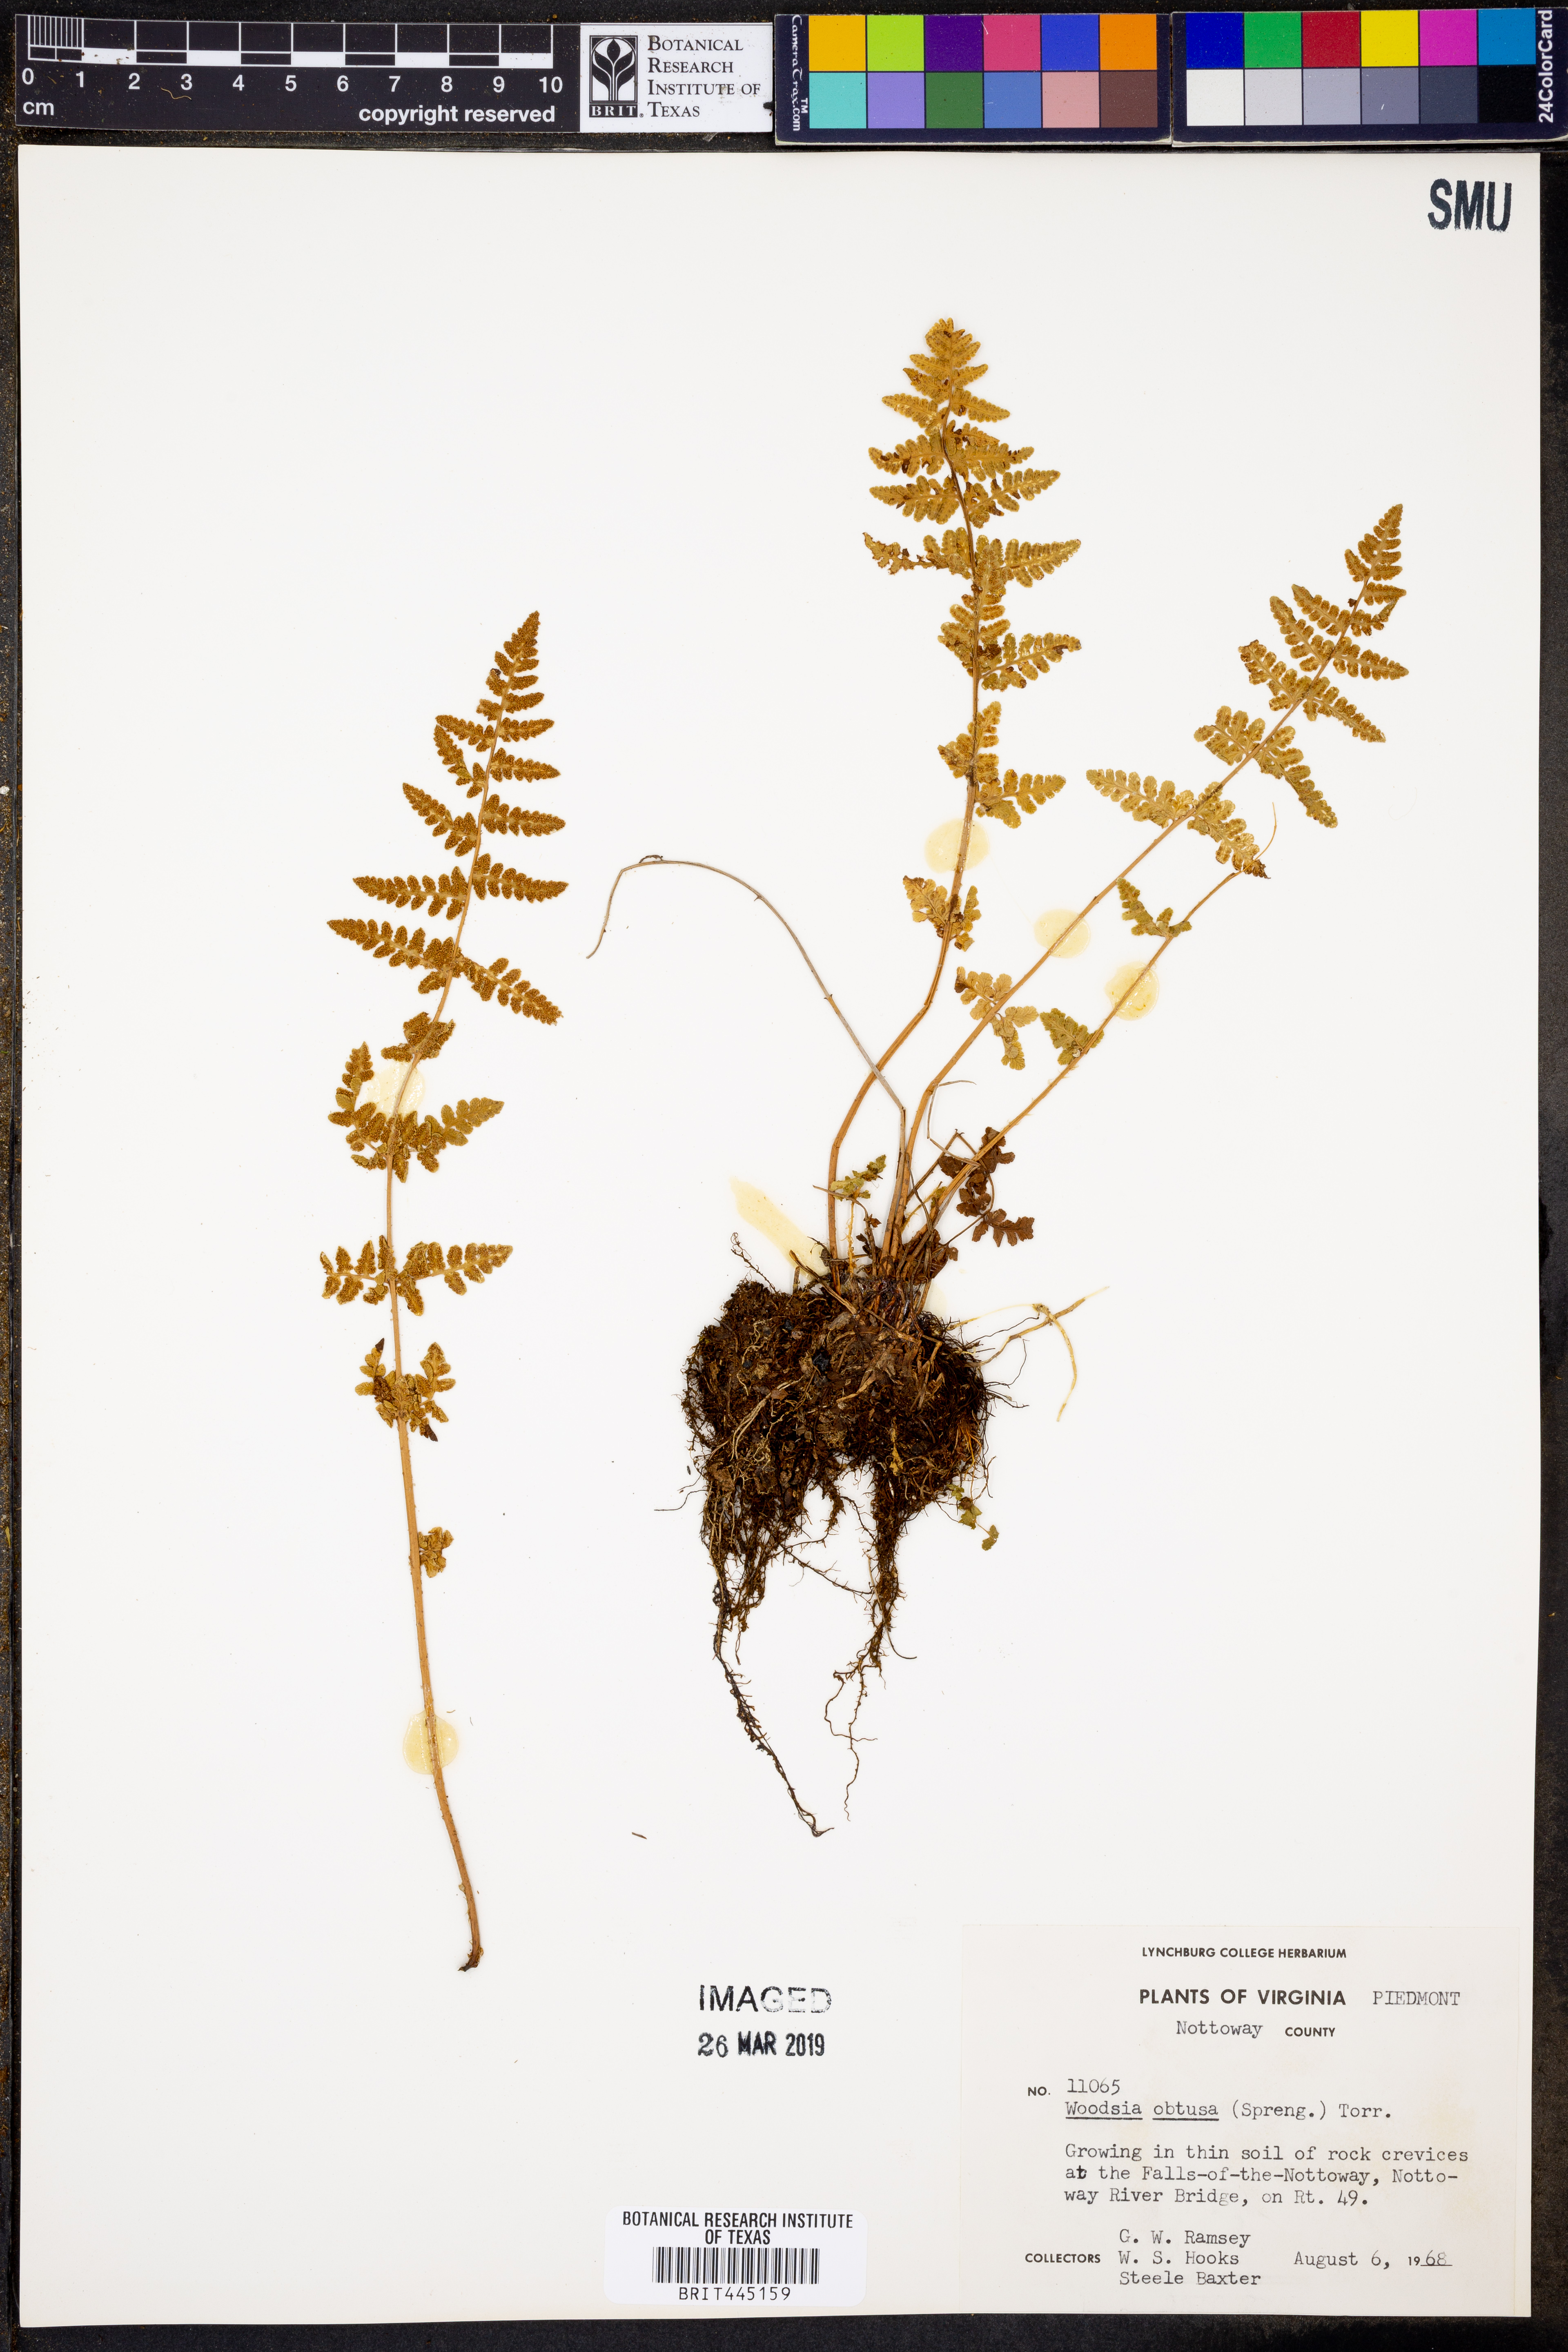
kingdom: Plantae
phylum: Tracheophyta
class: Polypodiopsida
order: Polypodiales
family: Woodsiaceae
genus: Physematium
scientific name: Physematium obtusum
